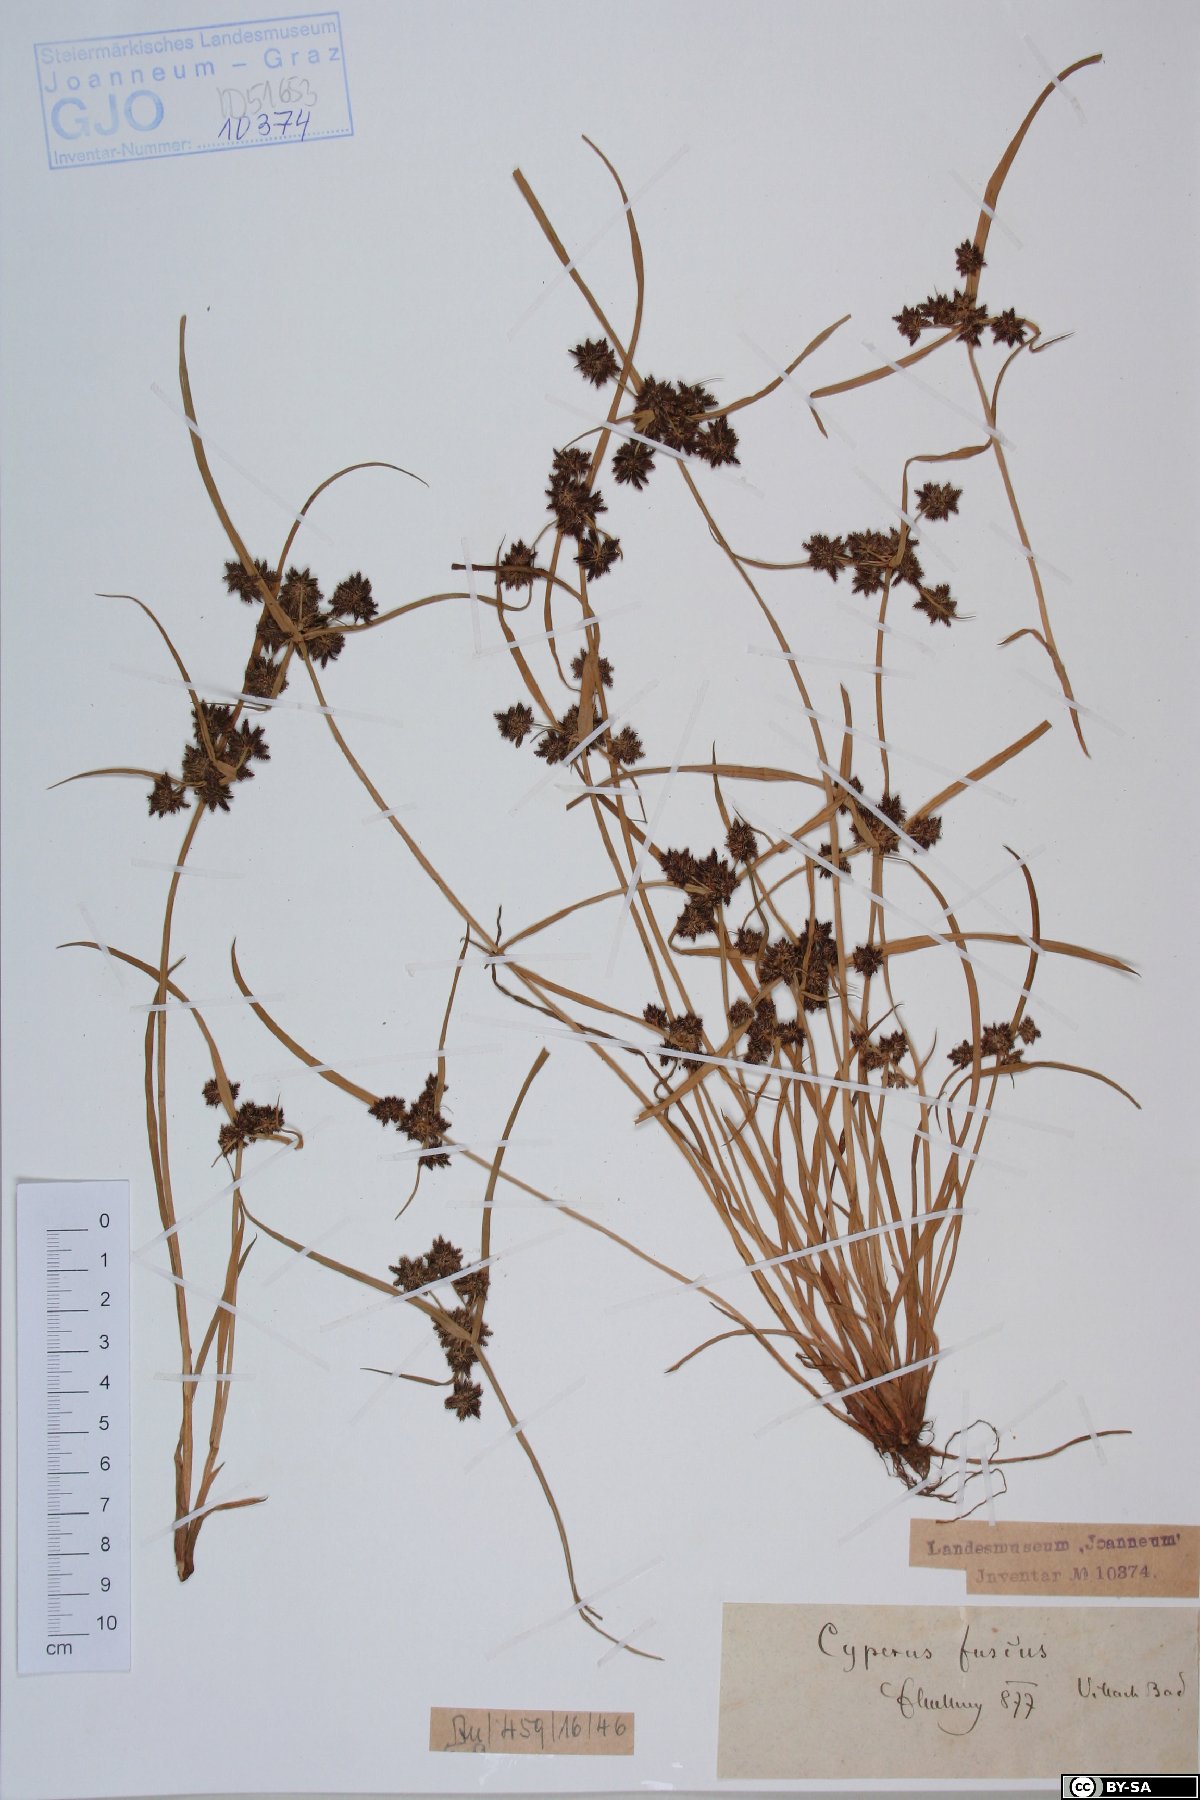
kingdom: Plantae
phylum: Tracheophyta
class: Liliopsida
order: Poales
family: Cyperaceae
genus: Cyperus
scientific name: Cyperus fuscus
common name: Brown galingale
